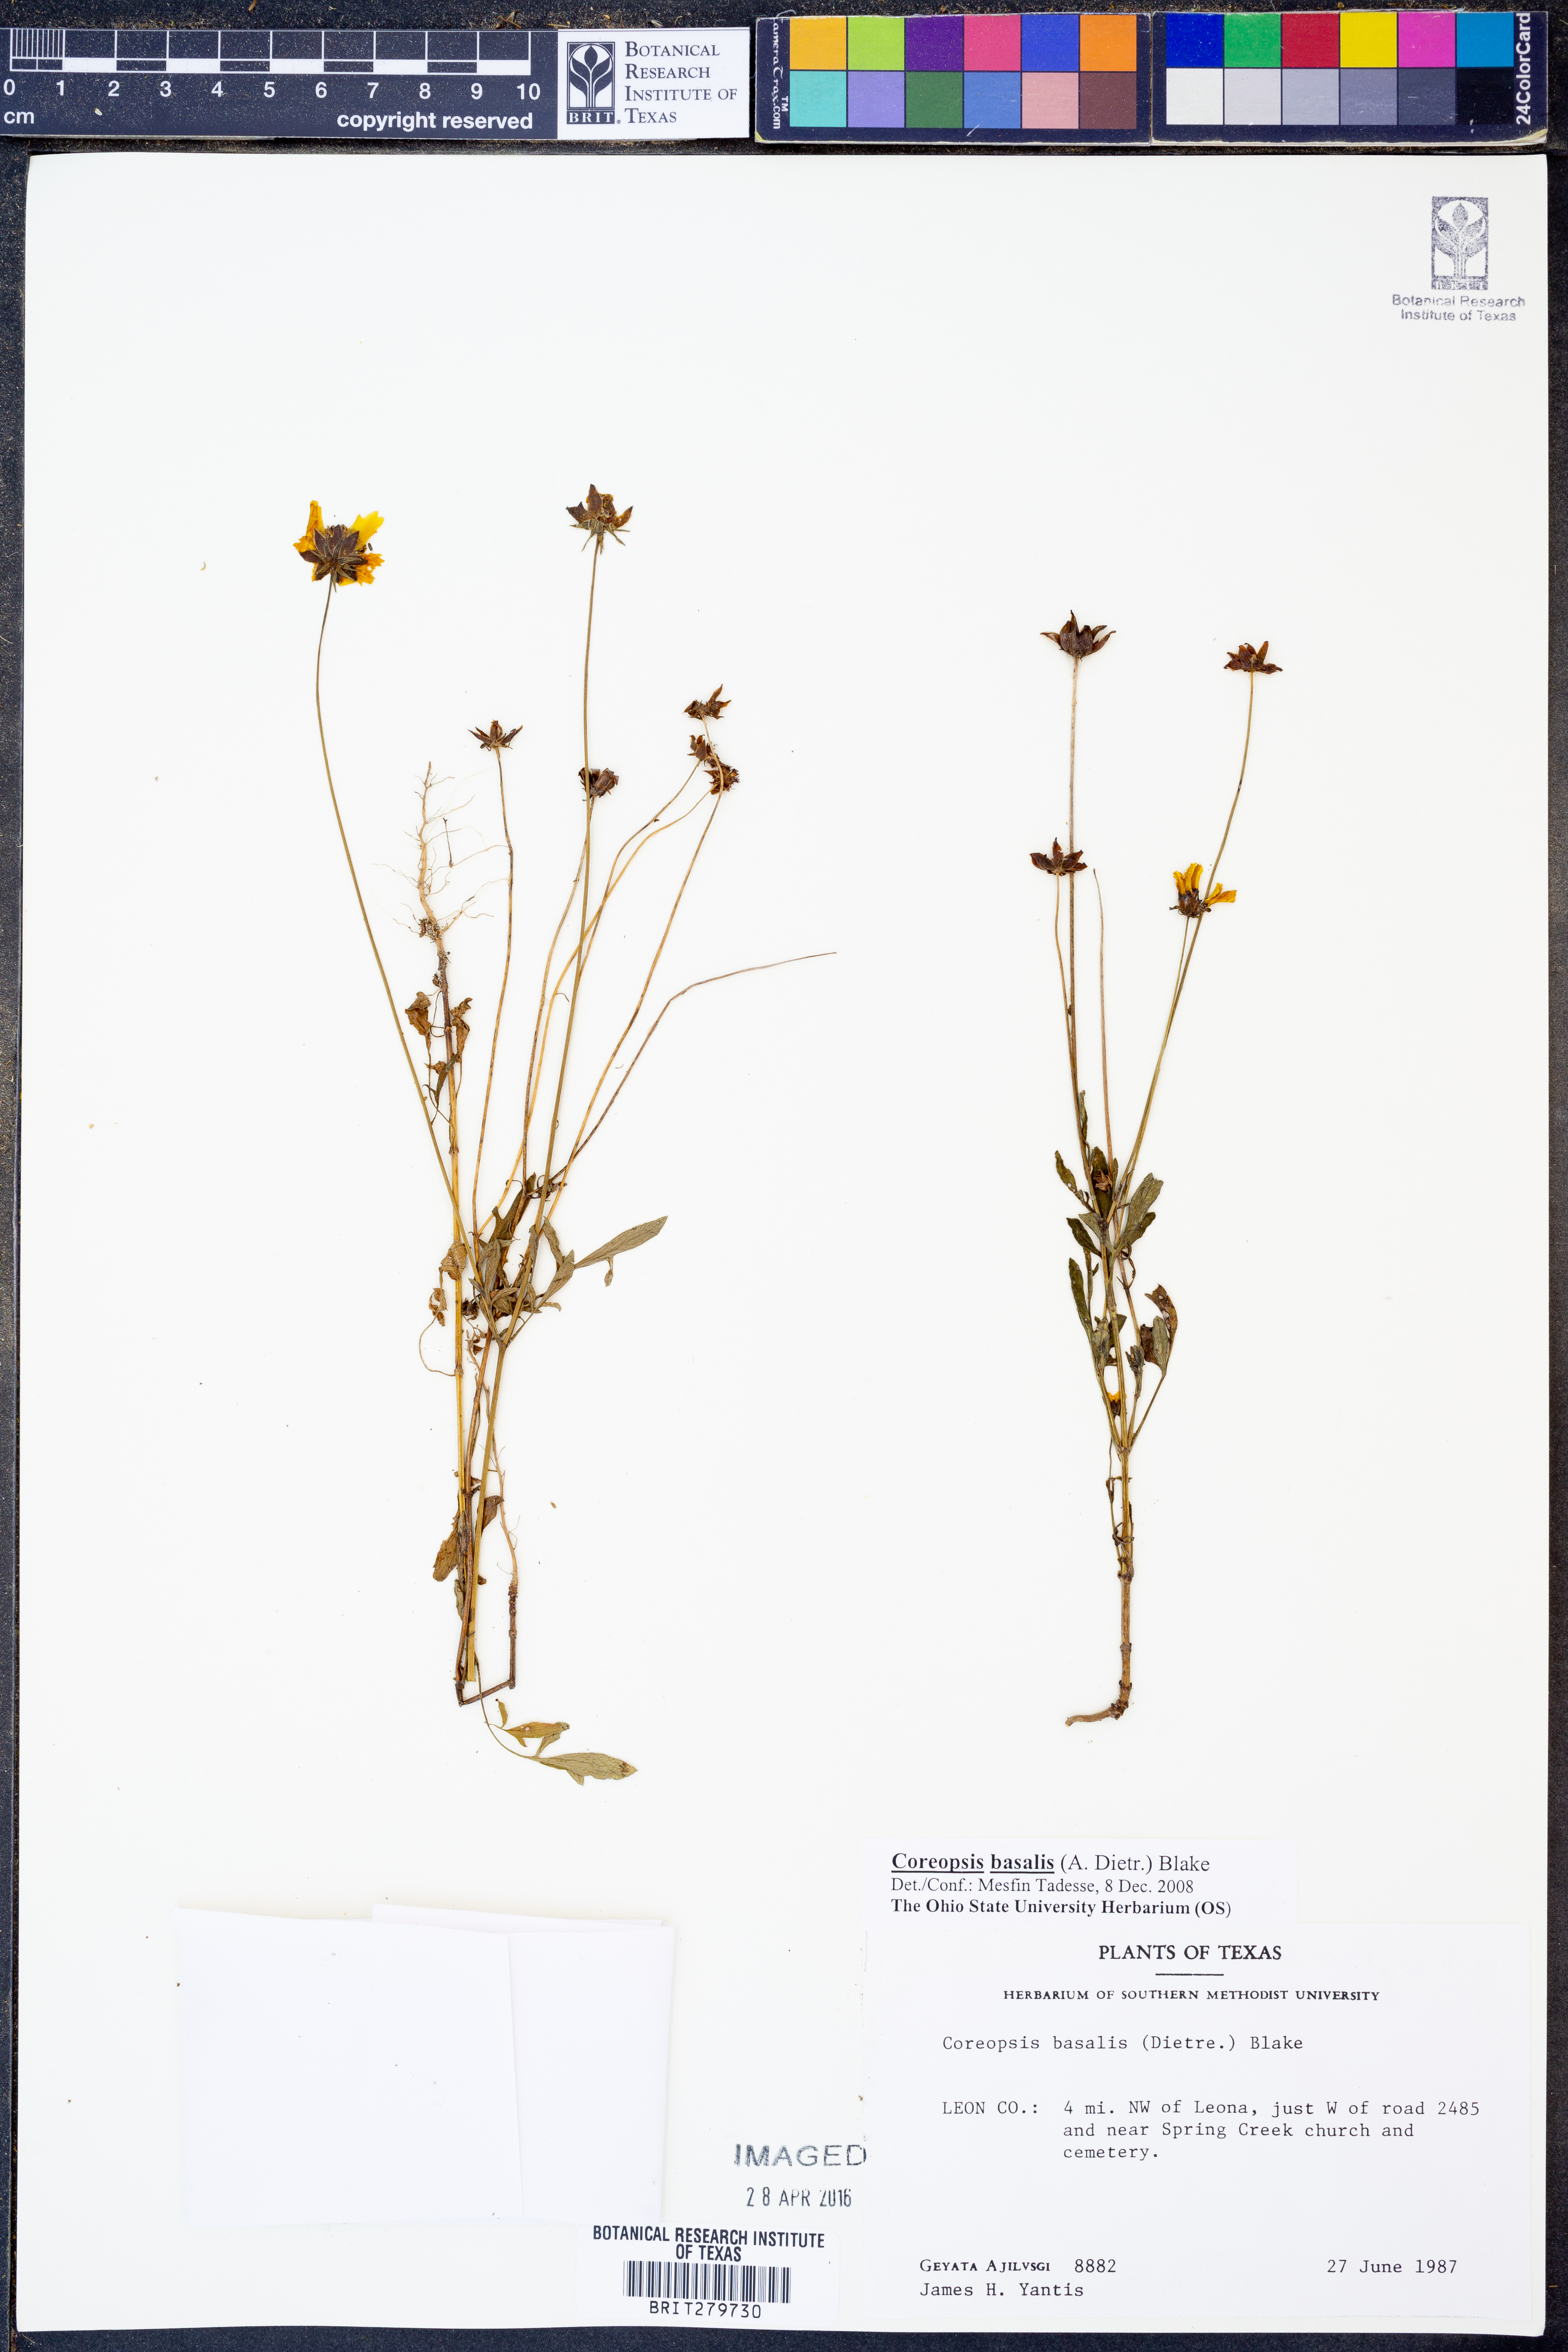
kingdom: Plantae
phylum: Tracheophyta
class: Magnoliopsida
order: Asterales
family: Asteraceae
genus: Coreopsis
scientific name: Coreopsis basalis
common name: Golden-mane coreopsis
